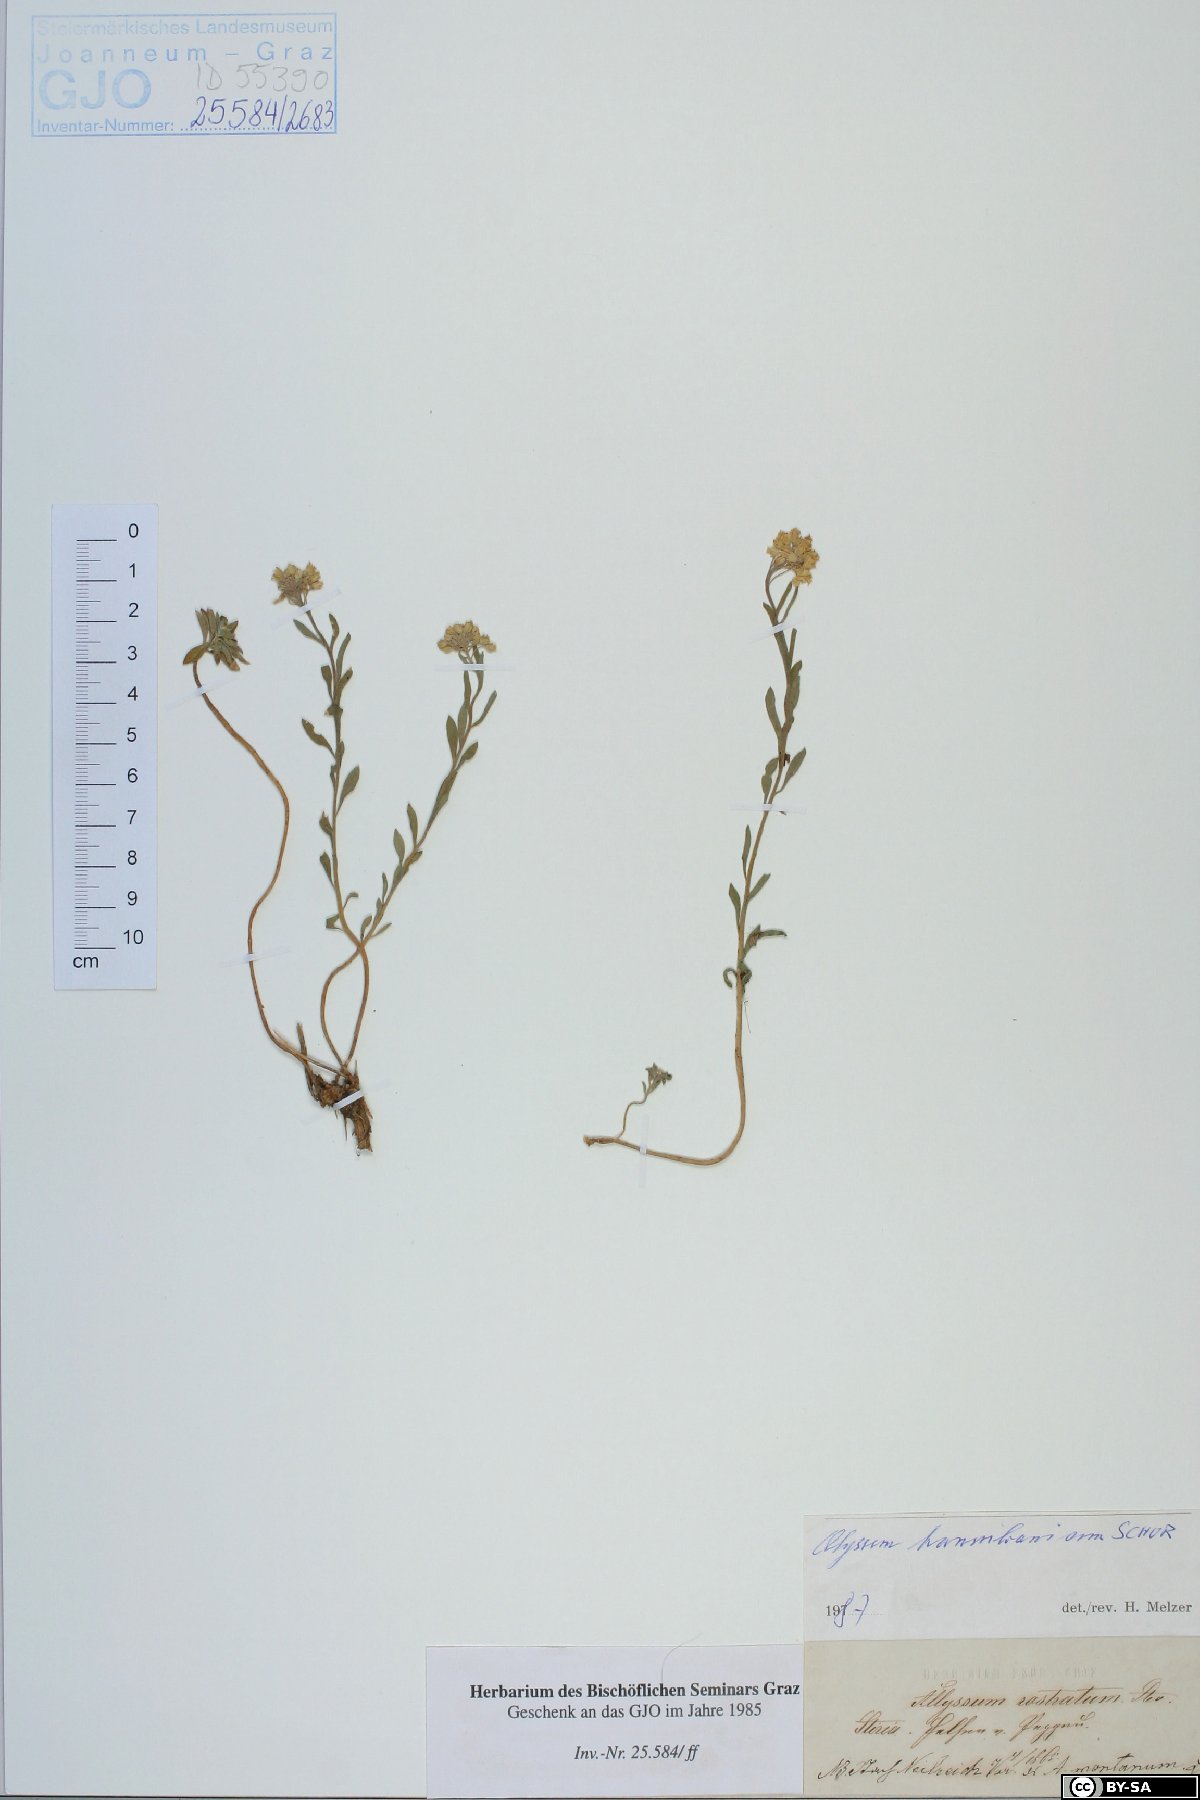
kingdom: Plantae
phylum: Tracheophyta
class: Magnoliopsida
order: Brassicales
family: Brassicaceae
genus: Alyssum
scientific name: Alyssum repens
